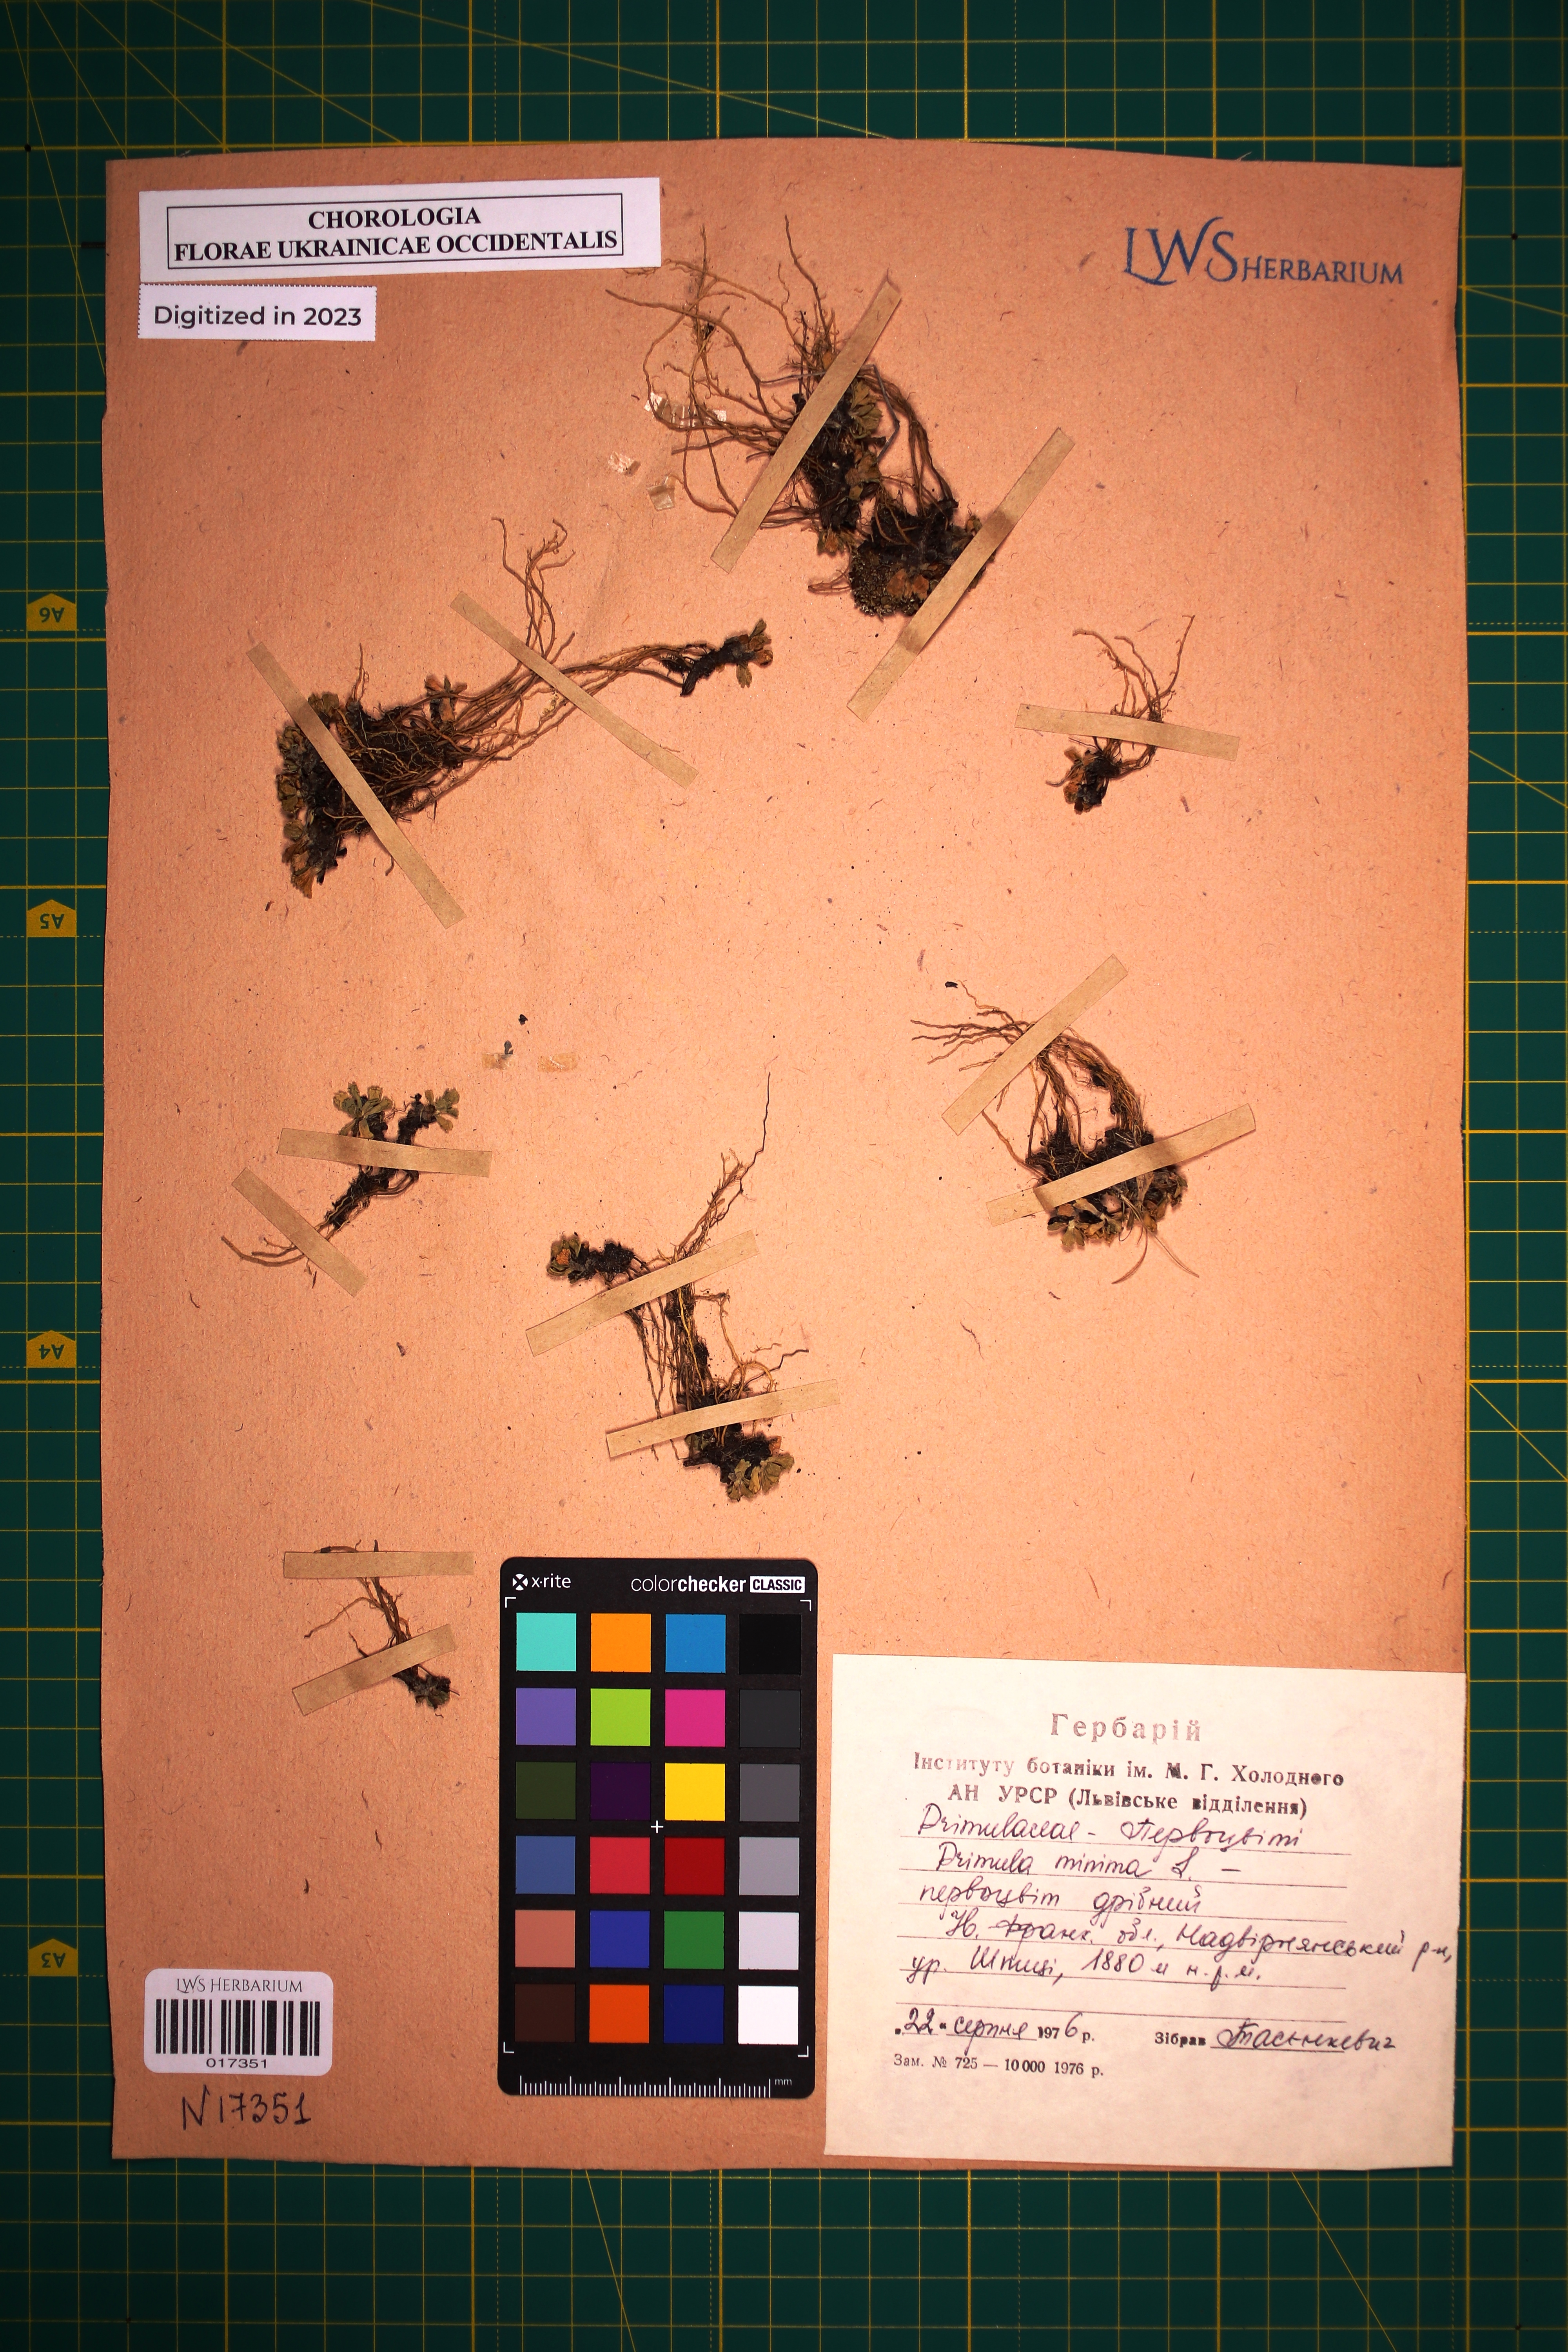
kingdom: Plantae
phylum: Tracheophyta
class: Magnoliopsida
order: Ericales
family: Primulaceae
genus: Primula
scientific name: Primula minima
